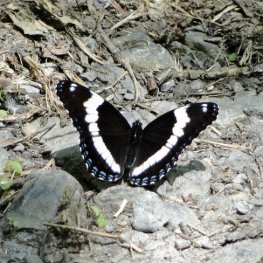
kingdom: Animalia
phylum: Arthropoda
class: Insecta
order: Lepidoptera
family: Nymphalidae
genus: Limenitis
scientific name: Limenitis arthemis
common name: Red-spotted Admiral
